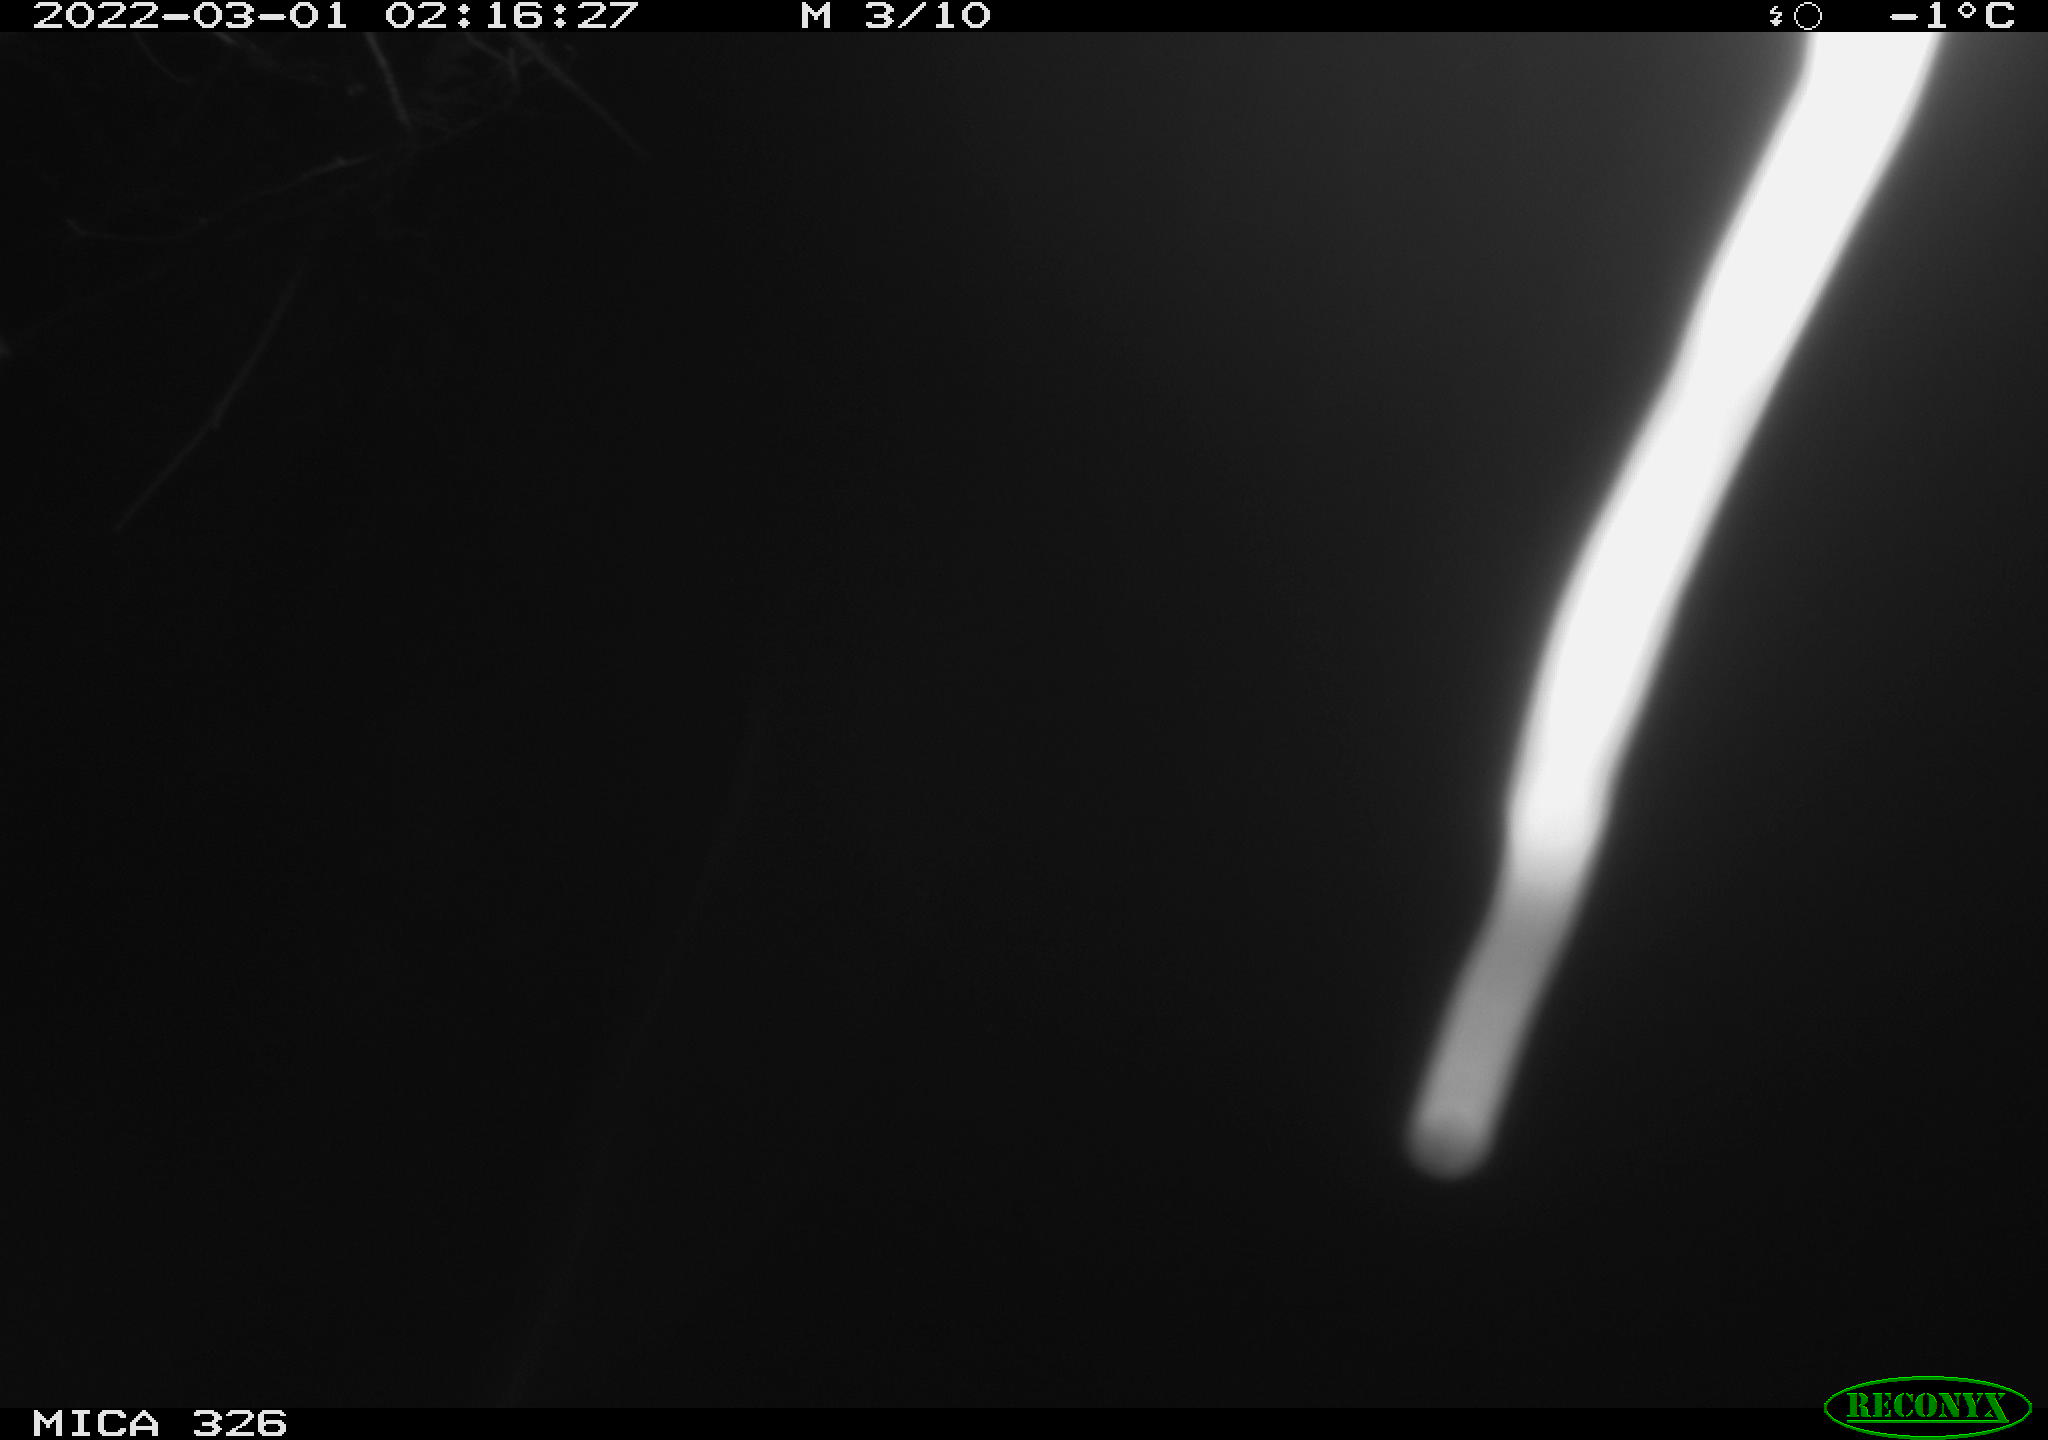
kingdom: Animalia
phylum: Chordata
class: Mammalia
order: Rodentia
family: Cricetidae
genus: Ondatra
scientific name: Ondatra zibethicus
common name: Muskrat
